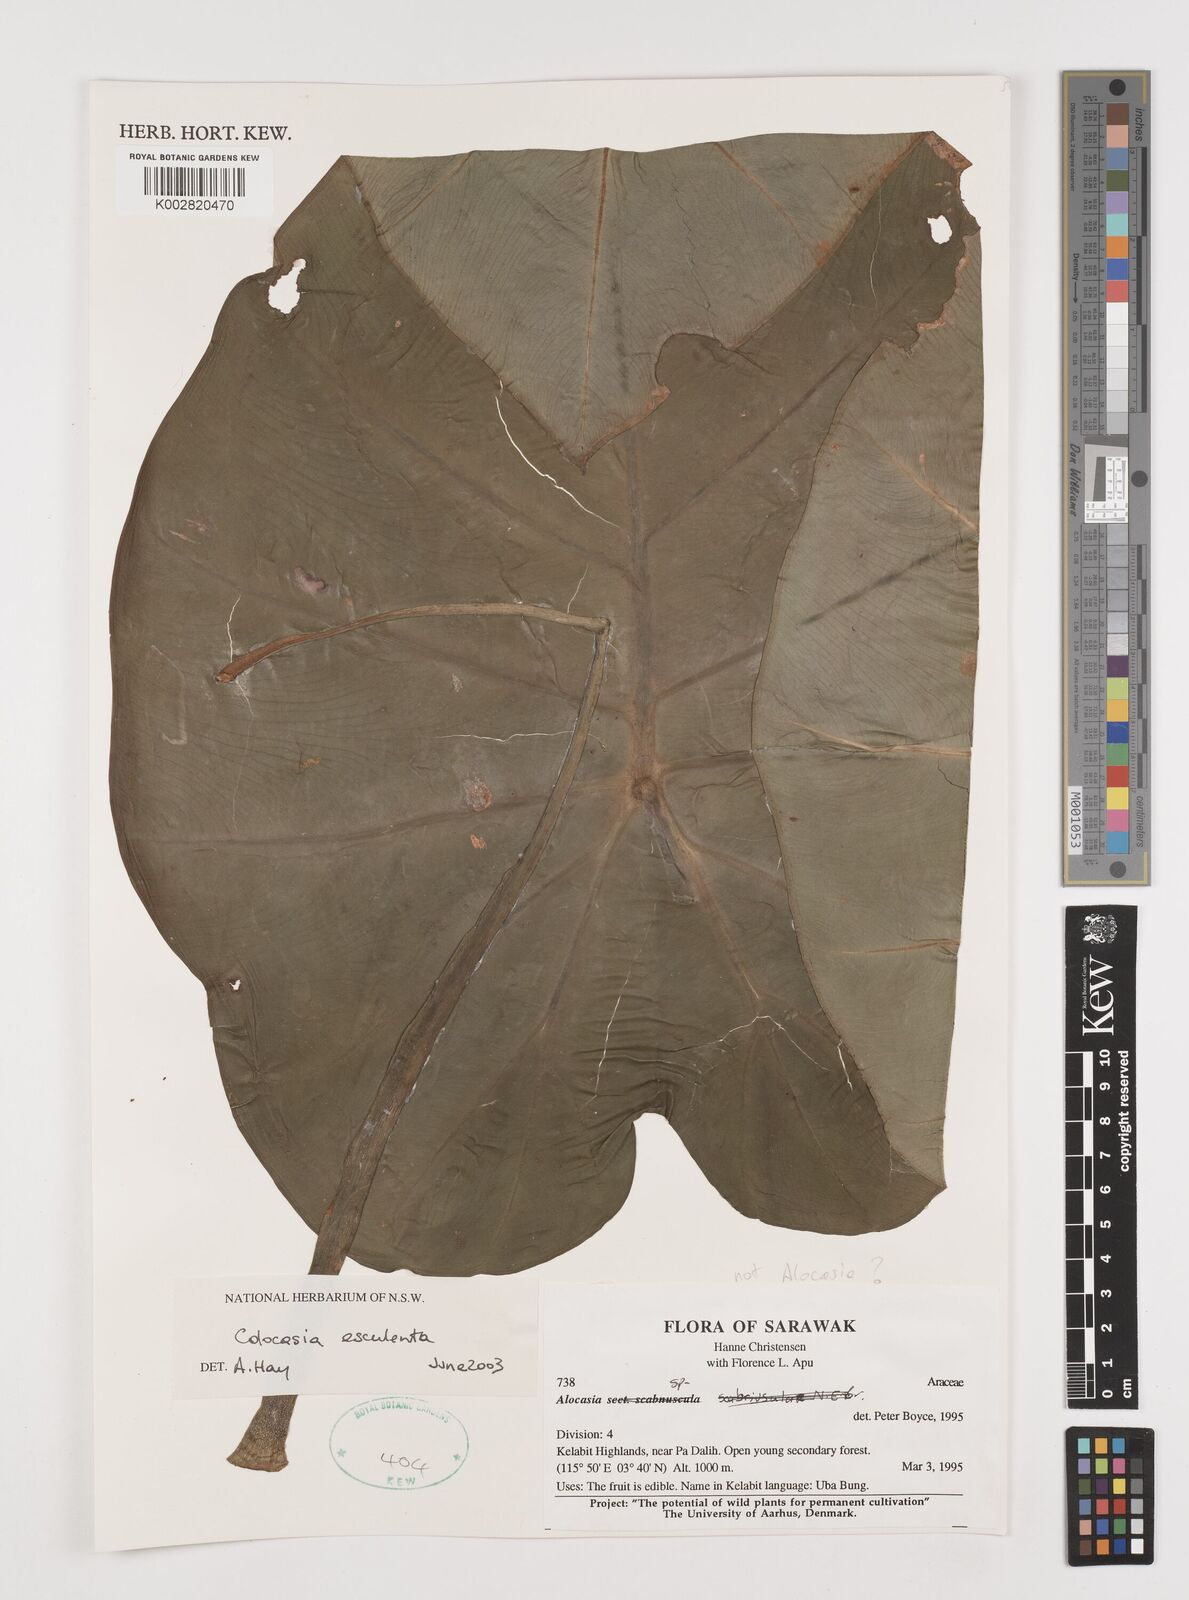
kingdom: Plantae
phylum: Tracheophyta
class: Liliopsida
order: Alismatales
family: Araceae
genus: Colocasia
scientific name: Colocasia esculenta
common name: Taro
